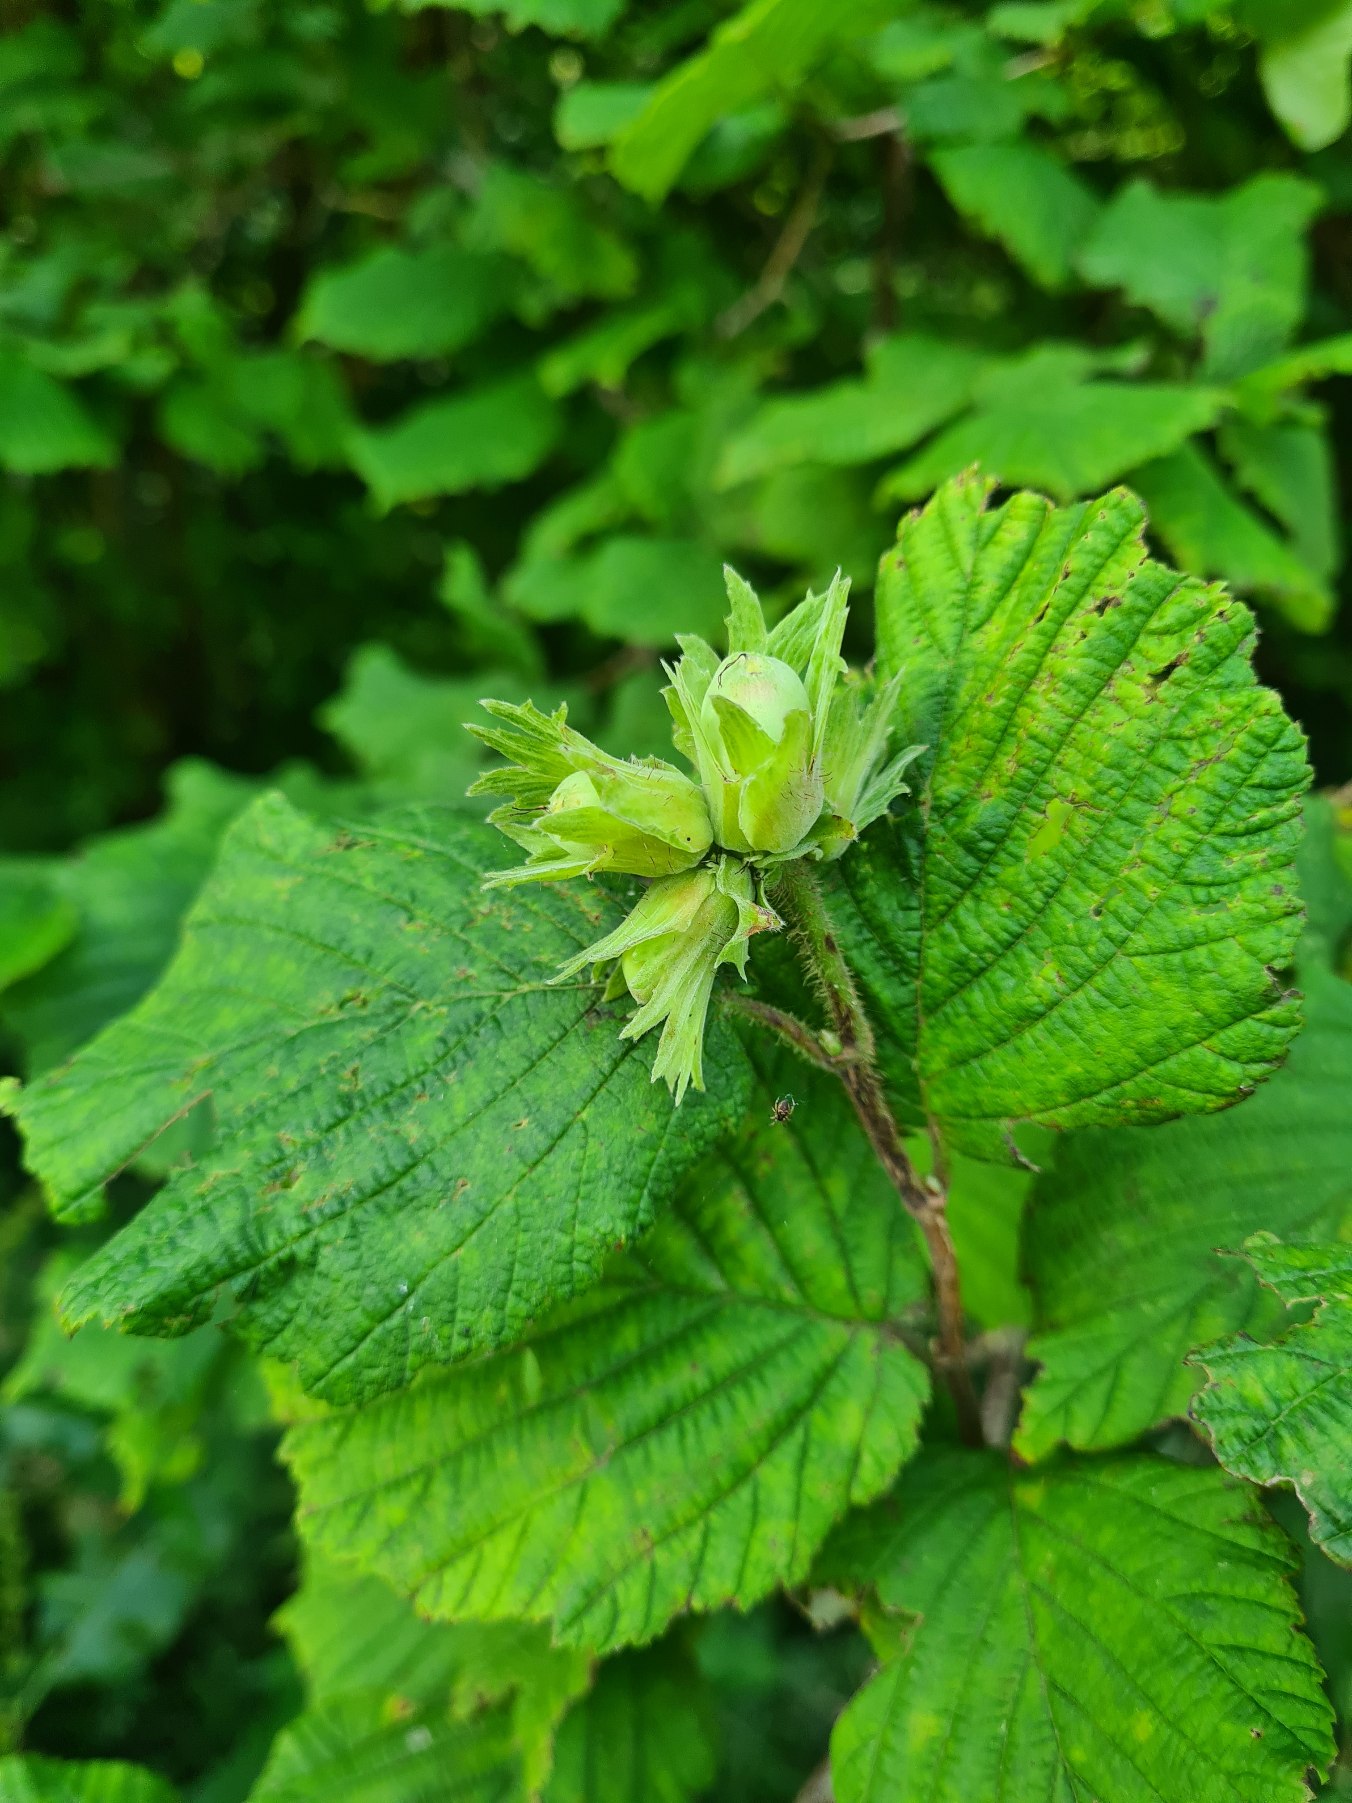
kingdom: Plantae
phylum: Tracheophyta
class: Magnoliopsida
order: Fagales
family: Betulaceae
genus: Corylus
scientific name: Corylus avellana
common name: Hassel
